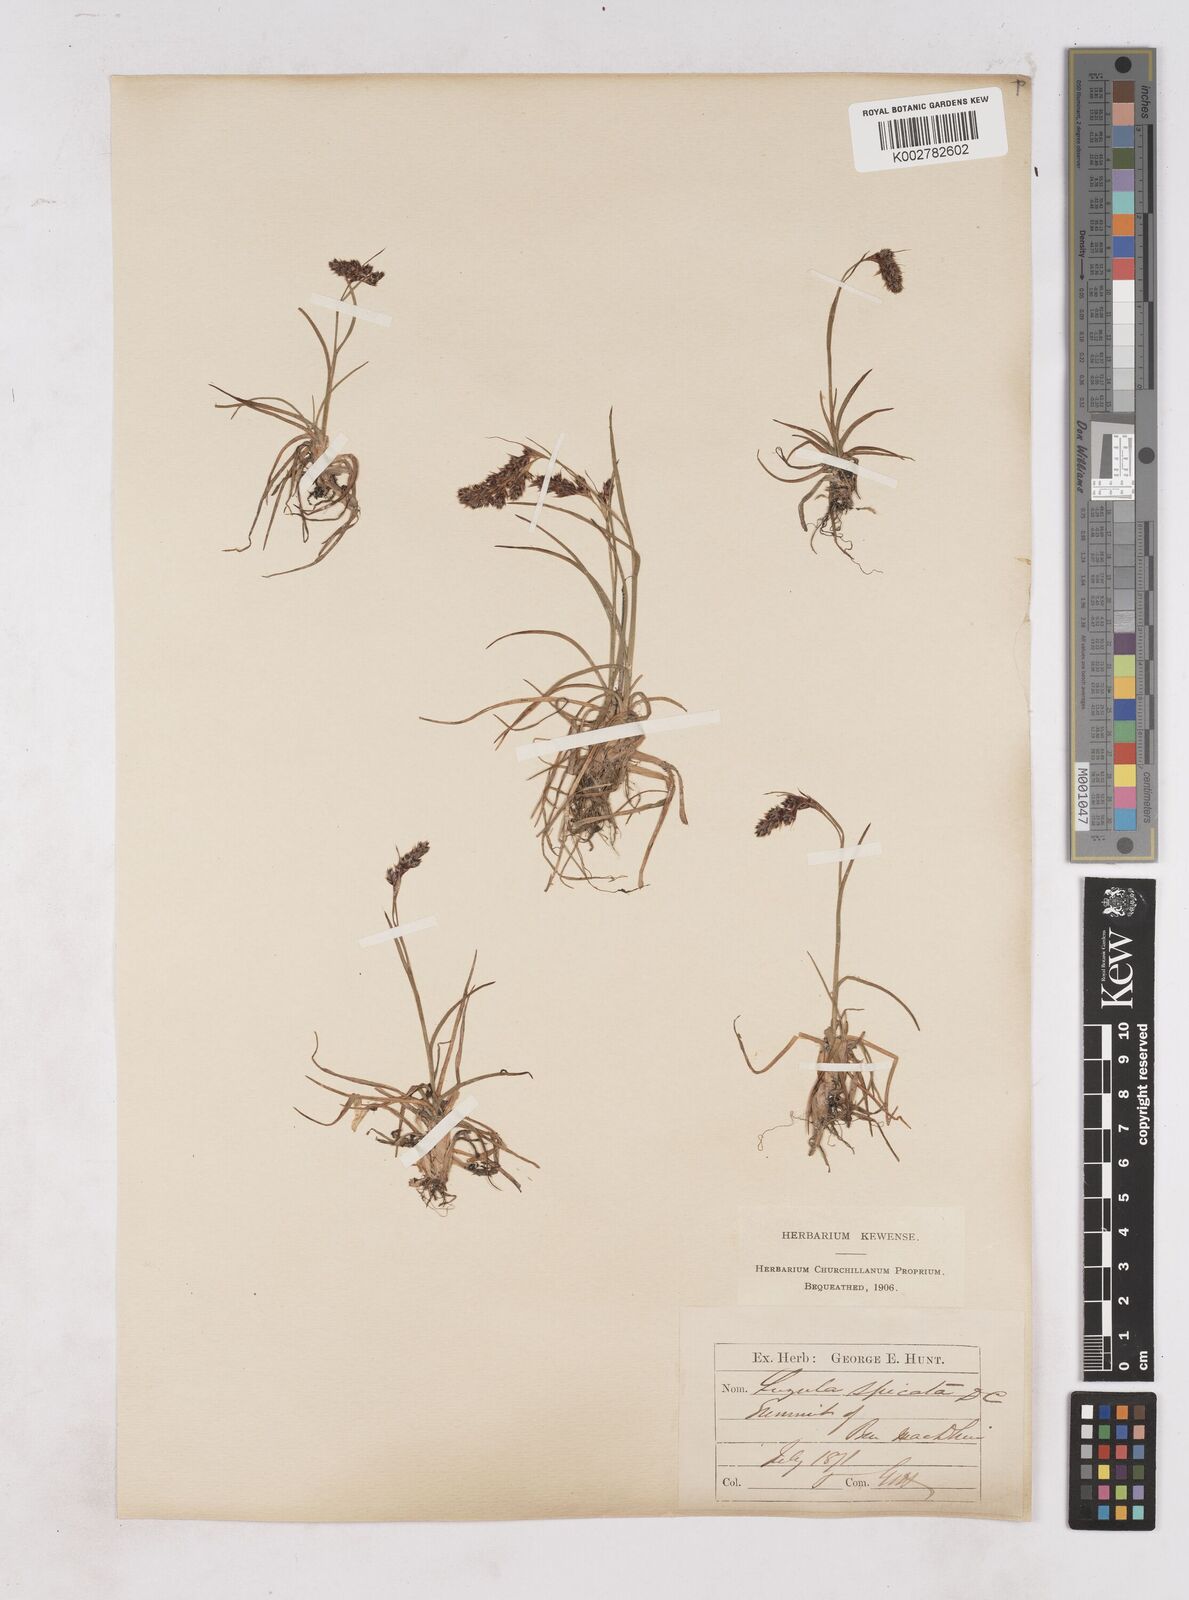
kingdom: Plantae
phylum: Tracheophyta
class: Liliopsida
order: Poales
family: Juncaceae
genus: Luzula
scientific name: Luzula spicata
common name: Spiked wood-rush
